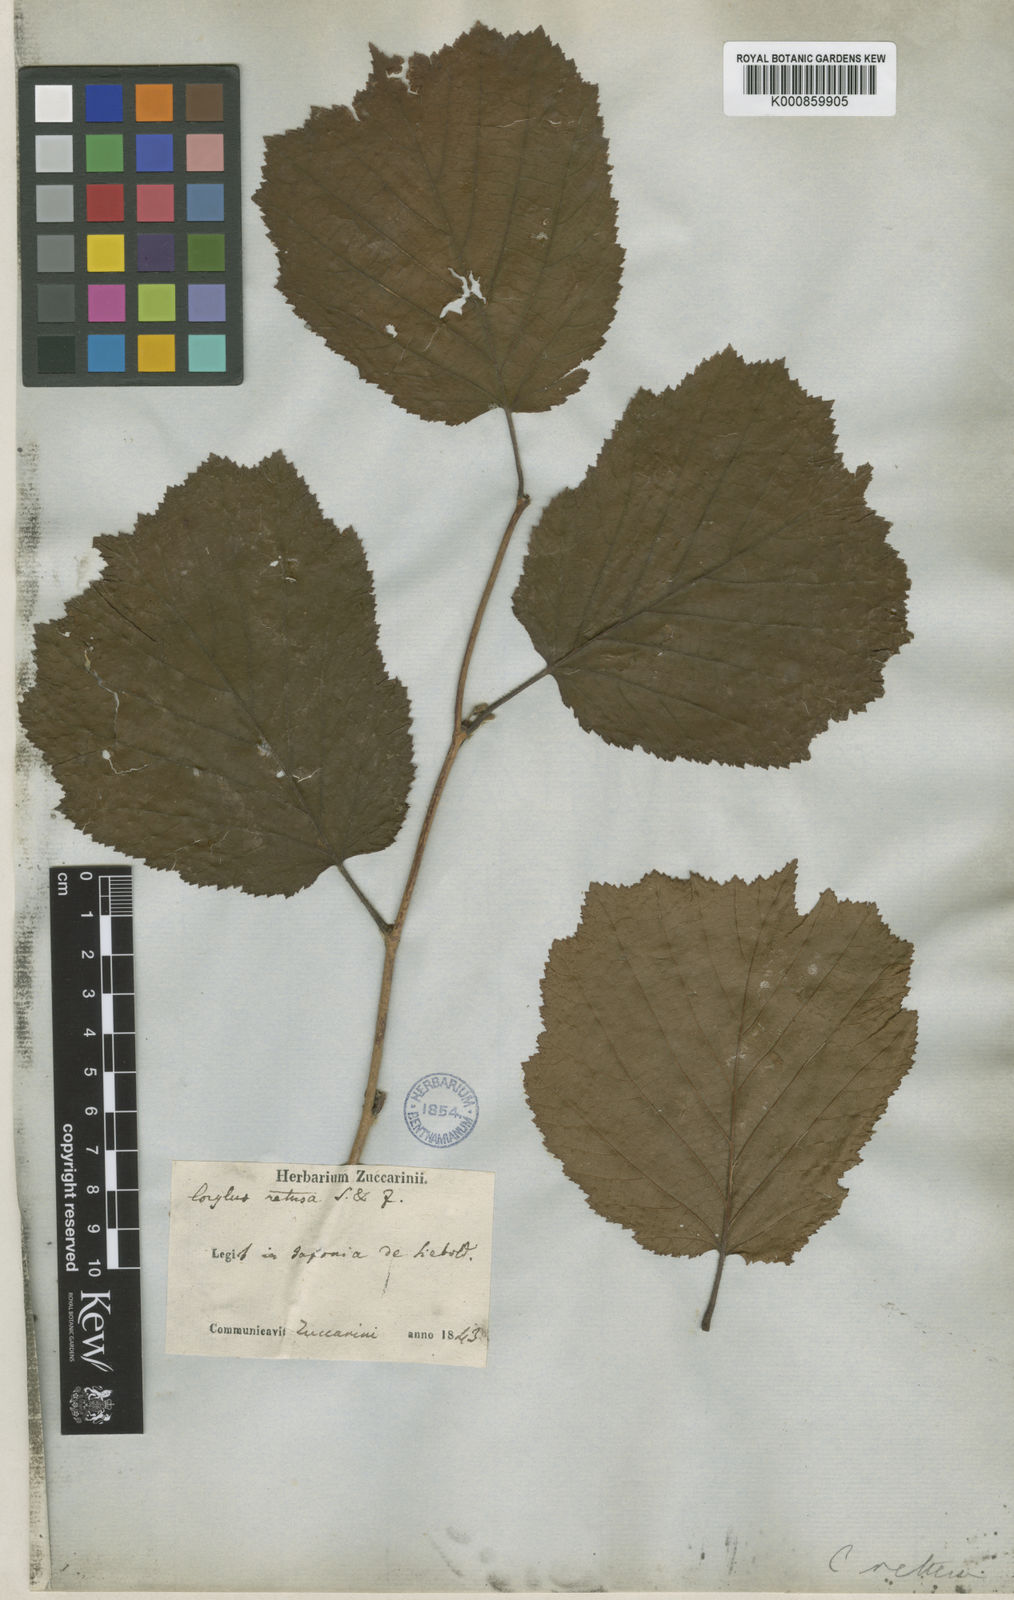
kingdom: Plantae
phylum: Tracheophyta
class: Magnoliopsida
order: Fagales
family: Betulaceae
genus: Corylus
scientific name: Corylus
